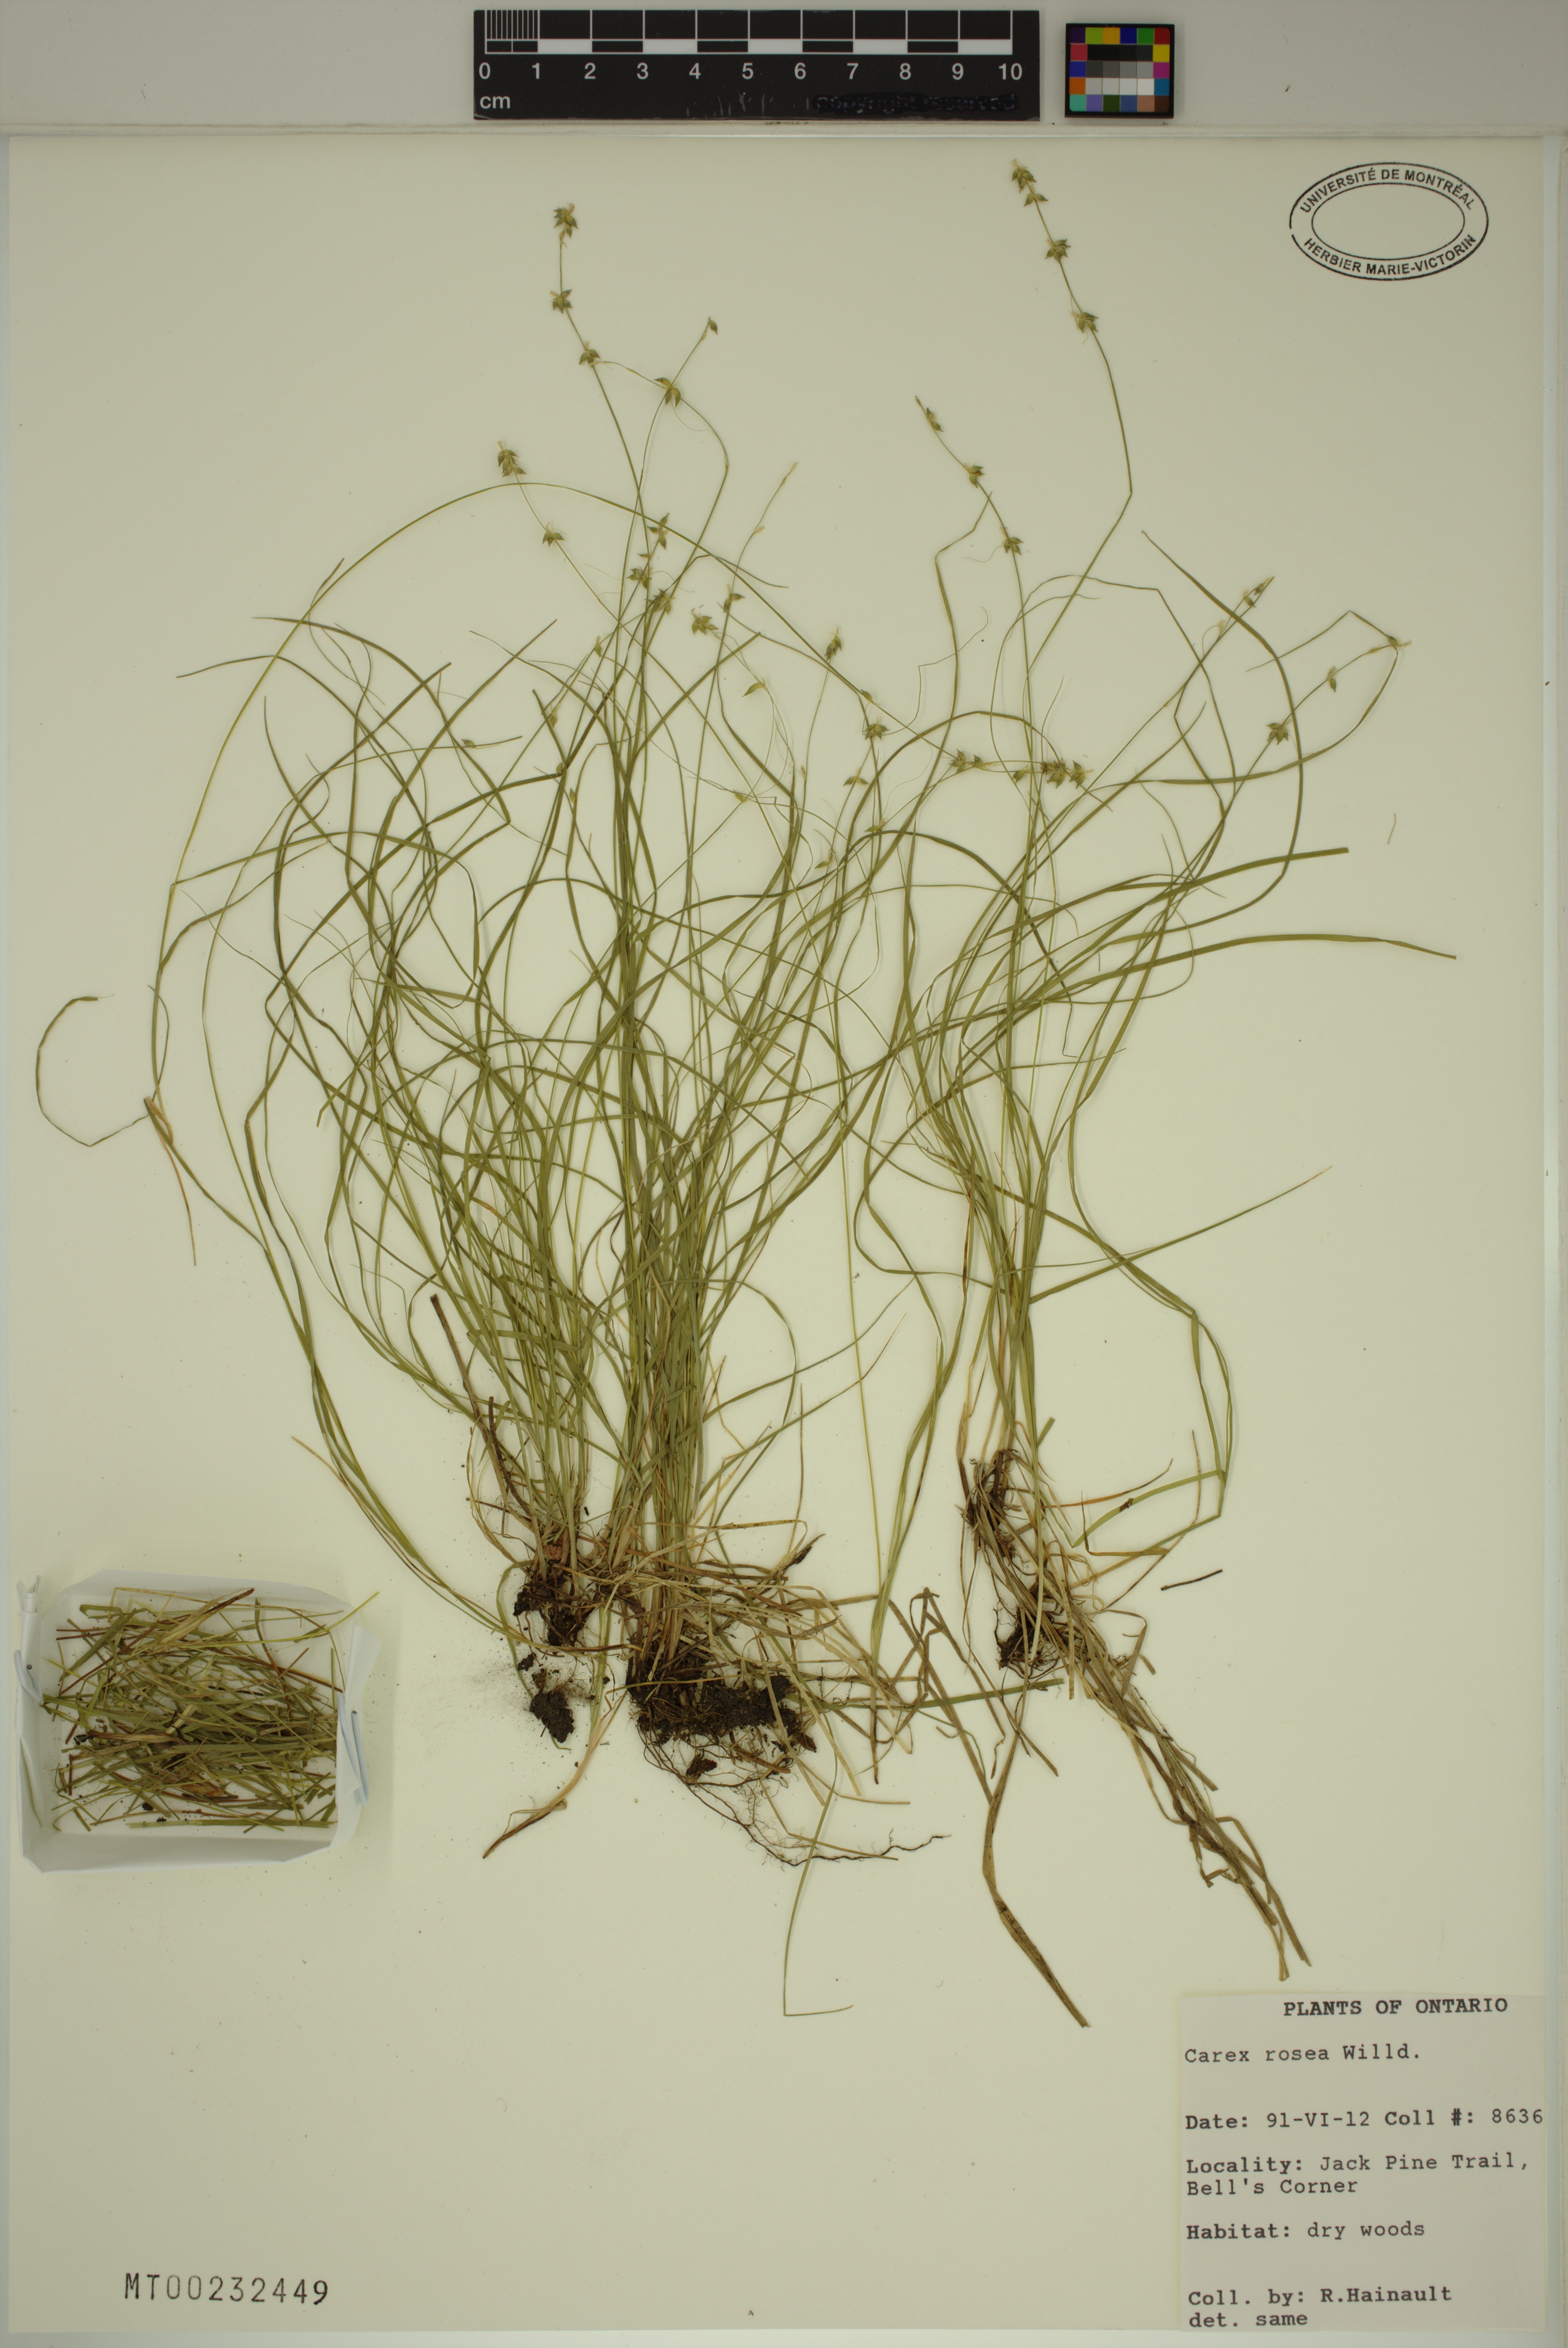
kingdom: Plantae
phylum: Tracheophyta
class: Liliopsida
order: Poales
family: Cyperaceae
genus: Carex
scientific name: Carex rosea
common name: Curly-styled wood sedge
